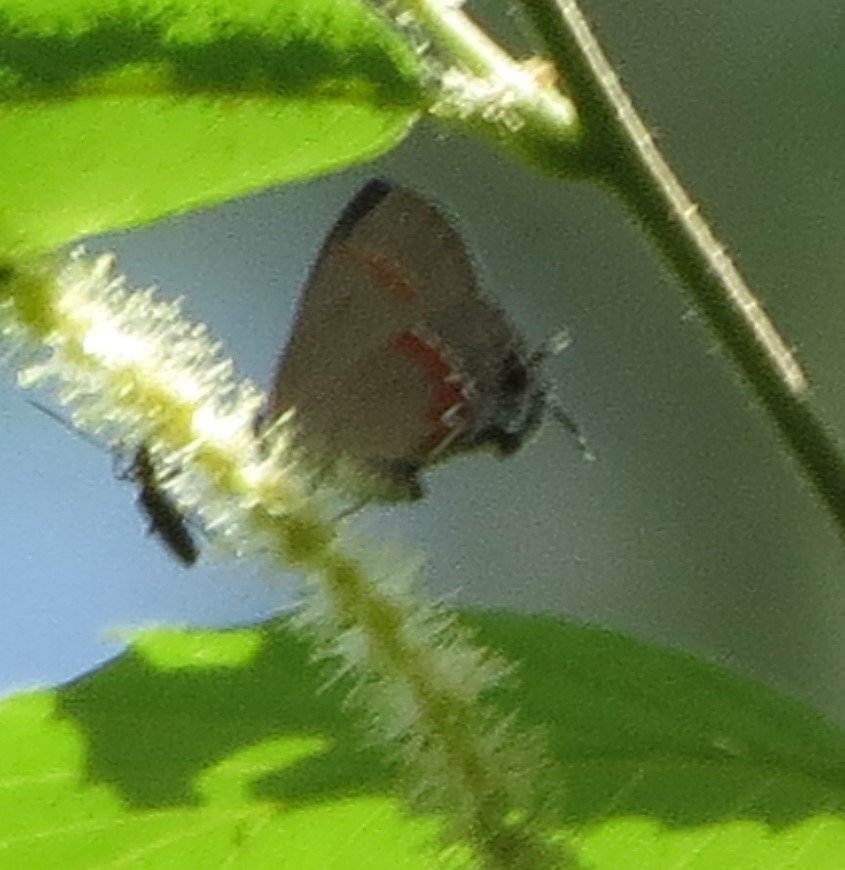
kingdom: Animalia
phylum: Arthropoda
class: Insecta
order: Lepidoptera
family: Lycaenidae
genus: Calycopis
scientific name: Calycopis cecrops
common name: Red-banded Hairstreak
